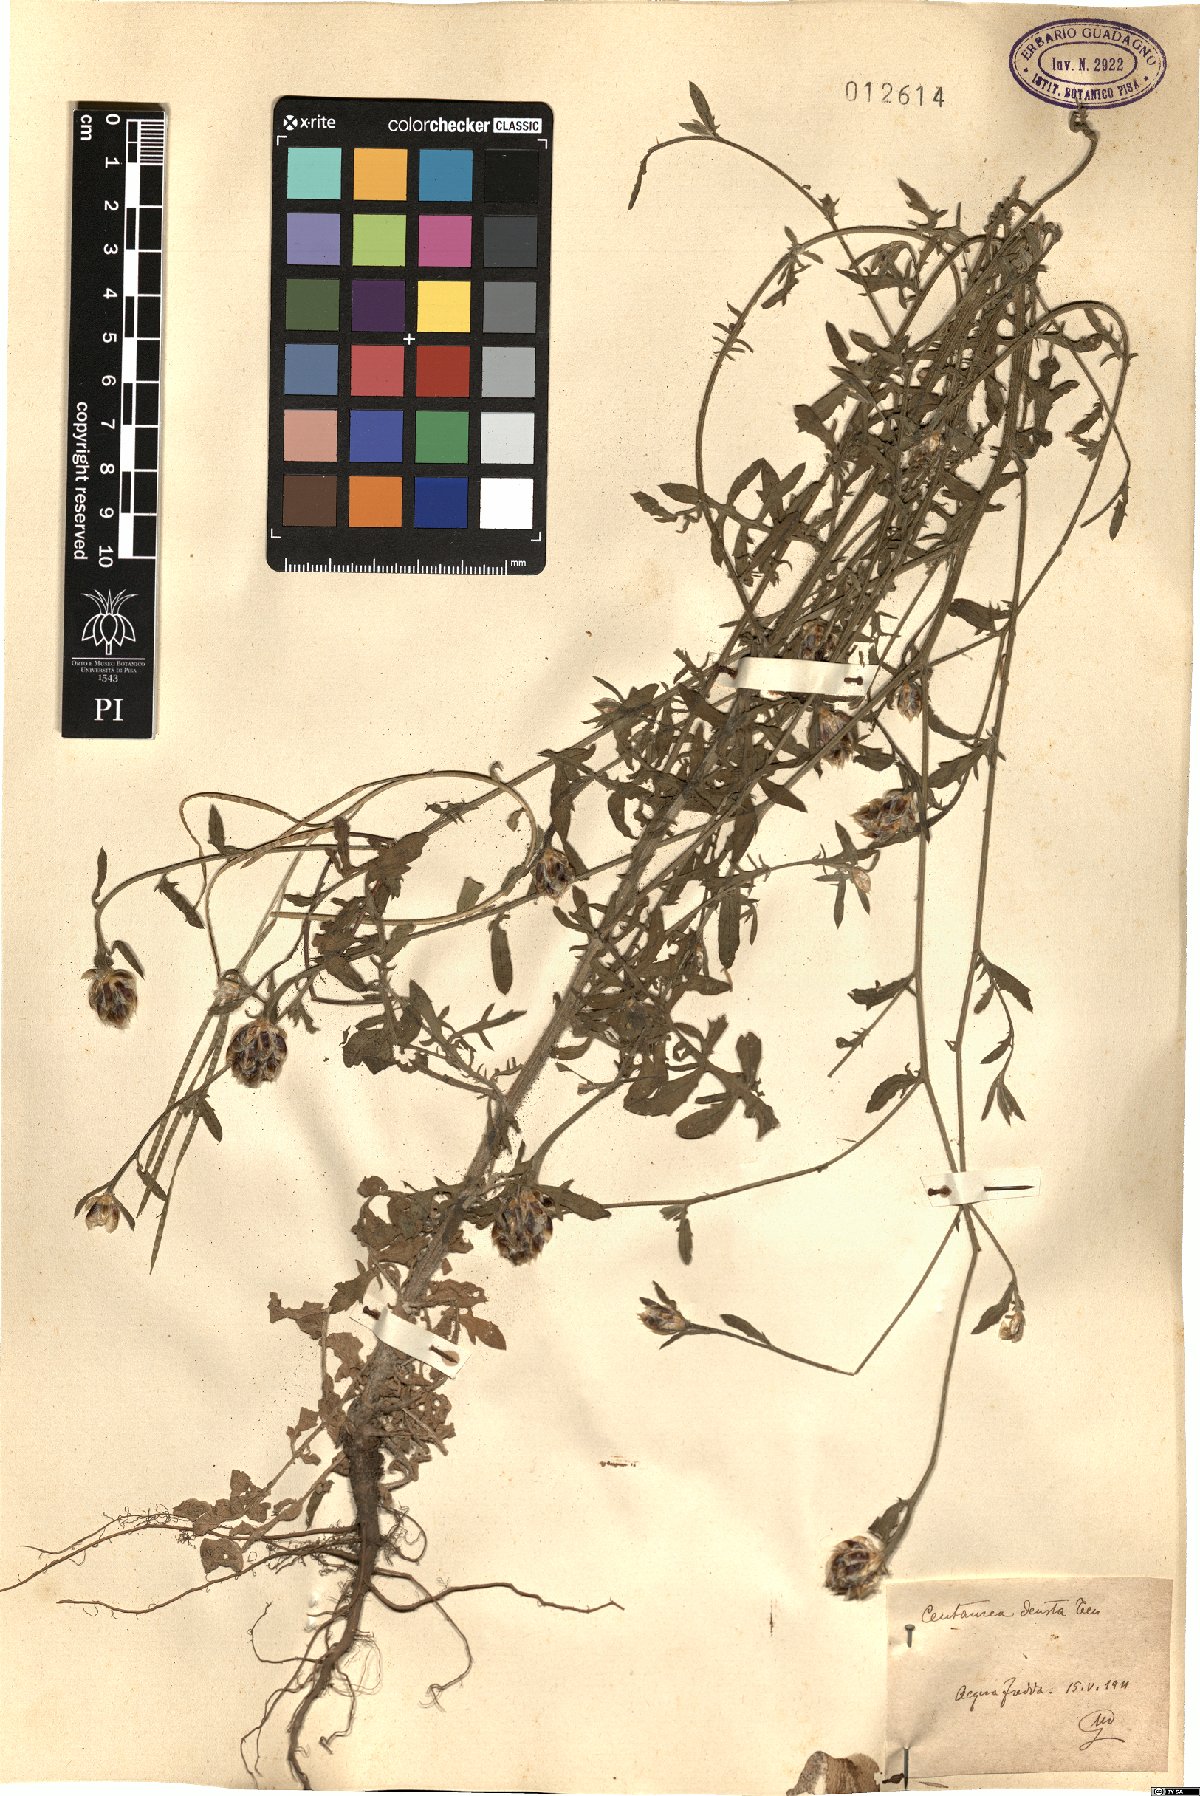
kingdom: Plantae
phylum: Tracheophyta
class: Magnoliopsida
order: Asterales
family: Asteraceae
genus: Centaurea
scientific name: Centaurea deusta
